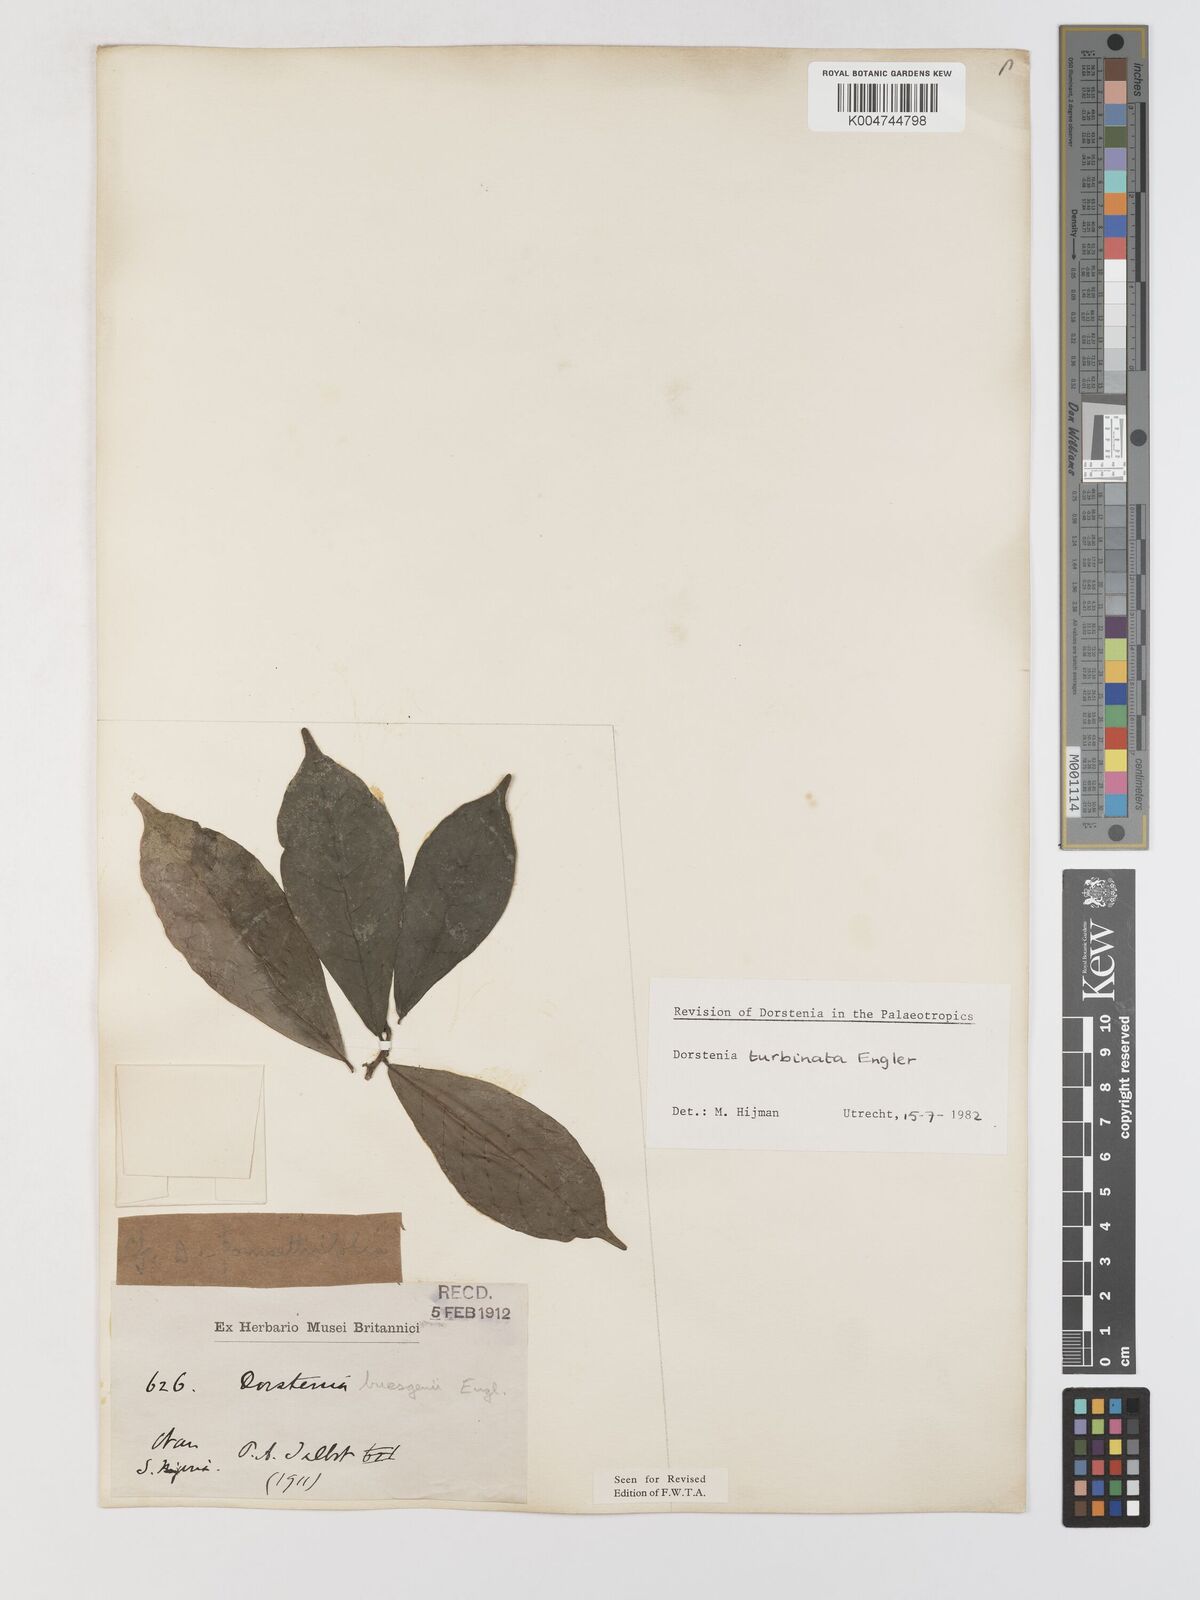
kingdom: Plantae
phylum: Tracheophyta
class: Magnoliopsida
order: Rosales
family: Moraceae
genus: Hijmania
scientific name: Hijmania turbinata
